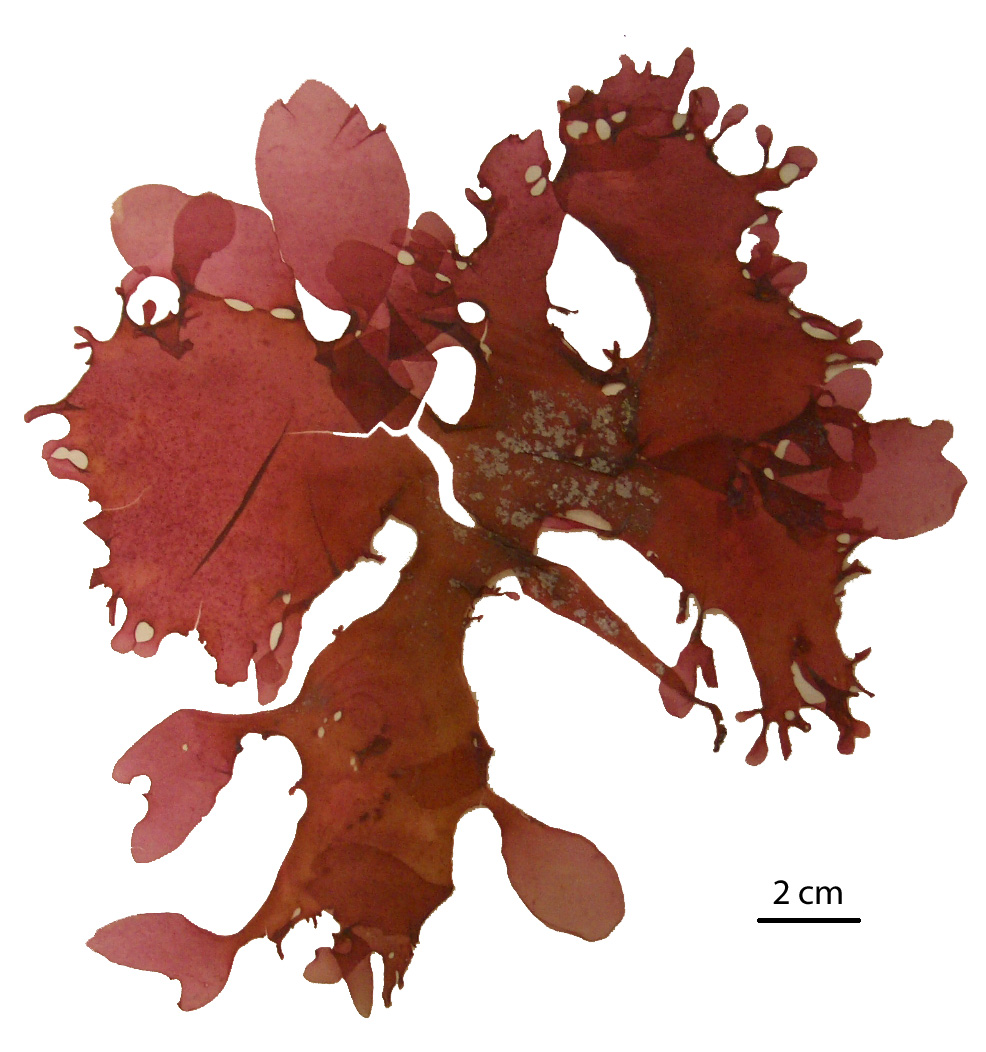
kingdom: Plantae
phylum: Rhodophyta
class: Florideophyceae
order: Gigartinales
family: Kallymeniaceae
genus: Psaromenia
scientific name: Psaromenia berggrenii
